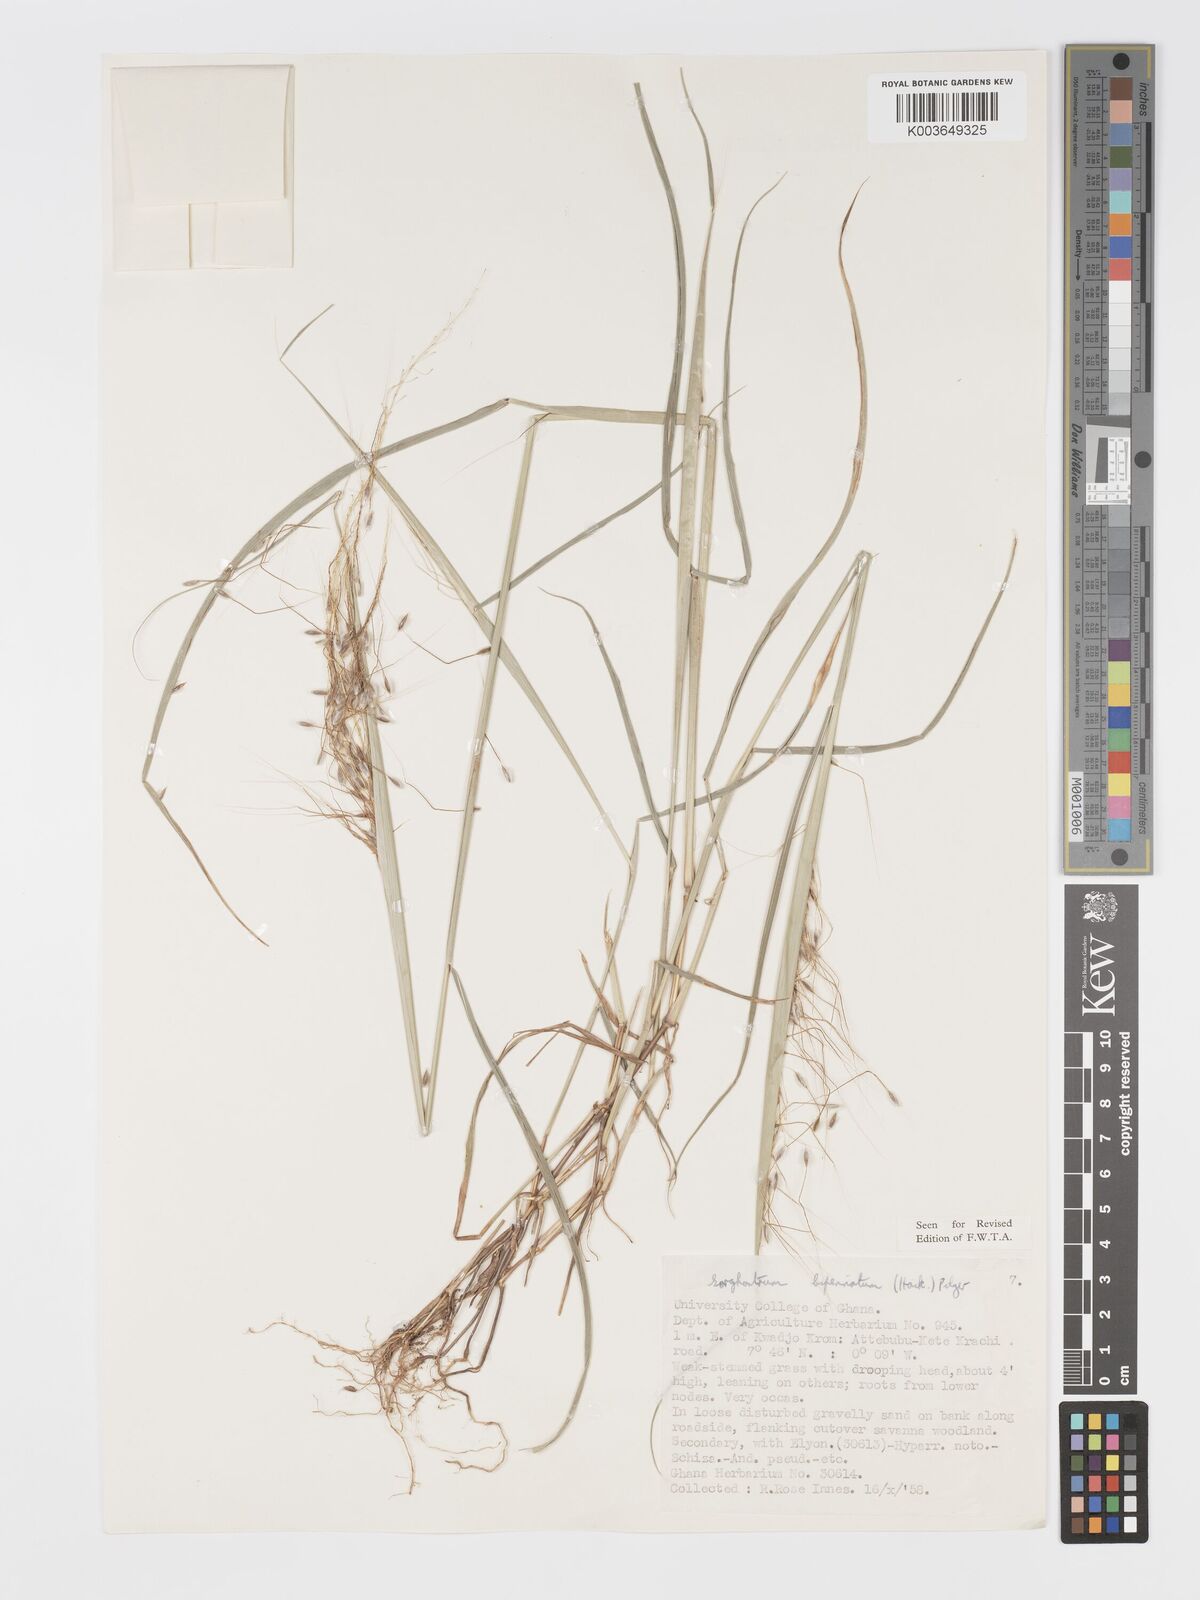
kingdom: Plantae
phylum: Tracheophyta
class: Liliopsida
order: Poales
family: Poaceae
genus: Sorghastrum
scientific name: Sorghastrum incompletum
